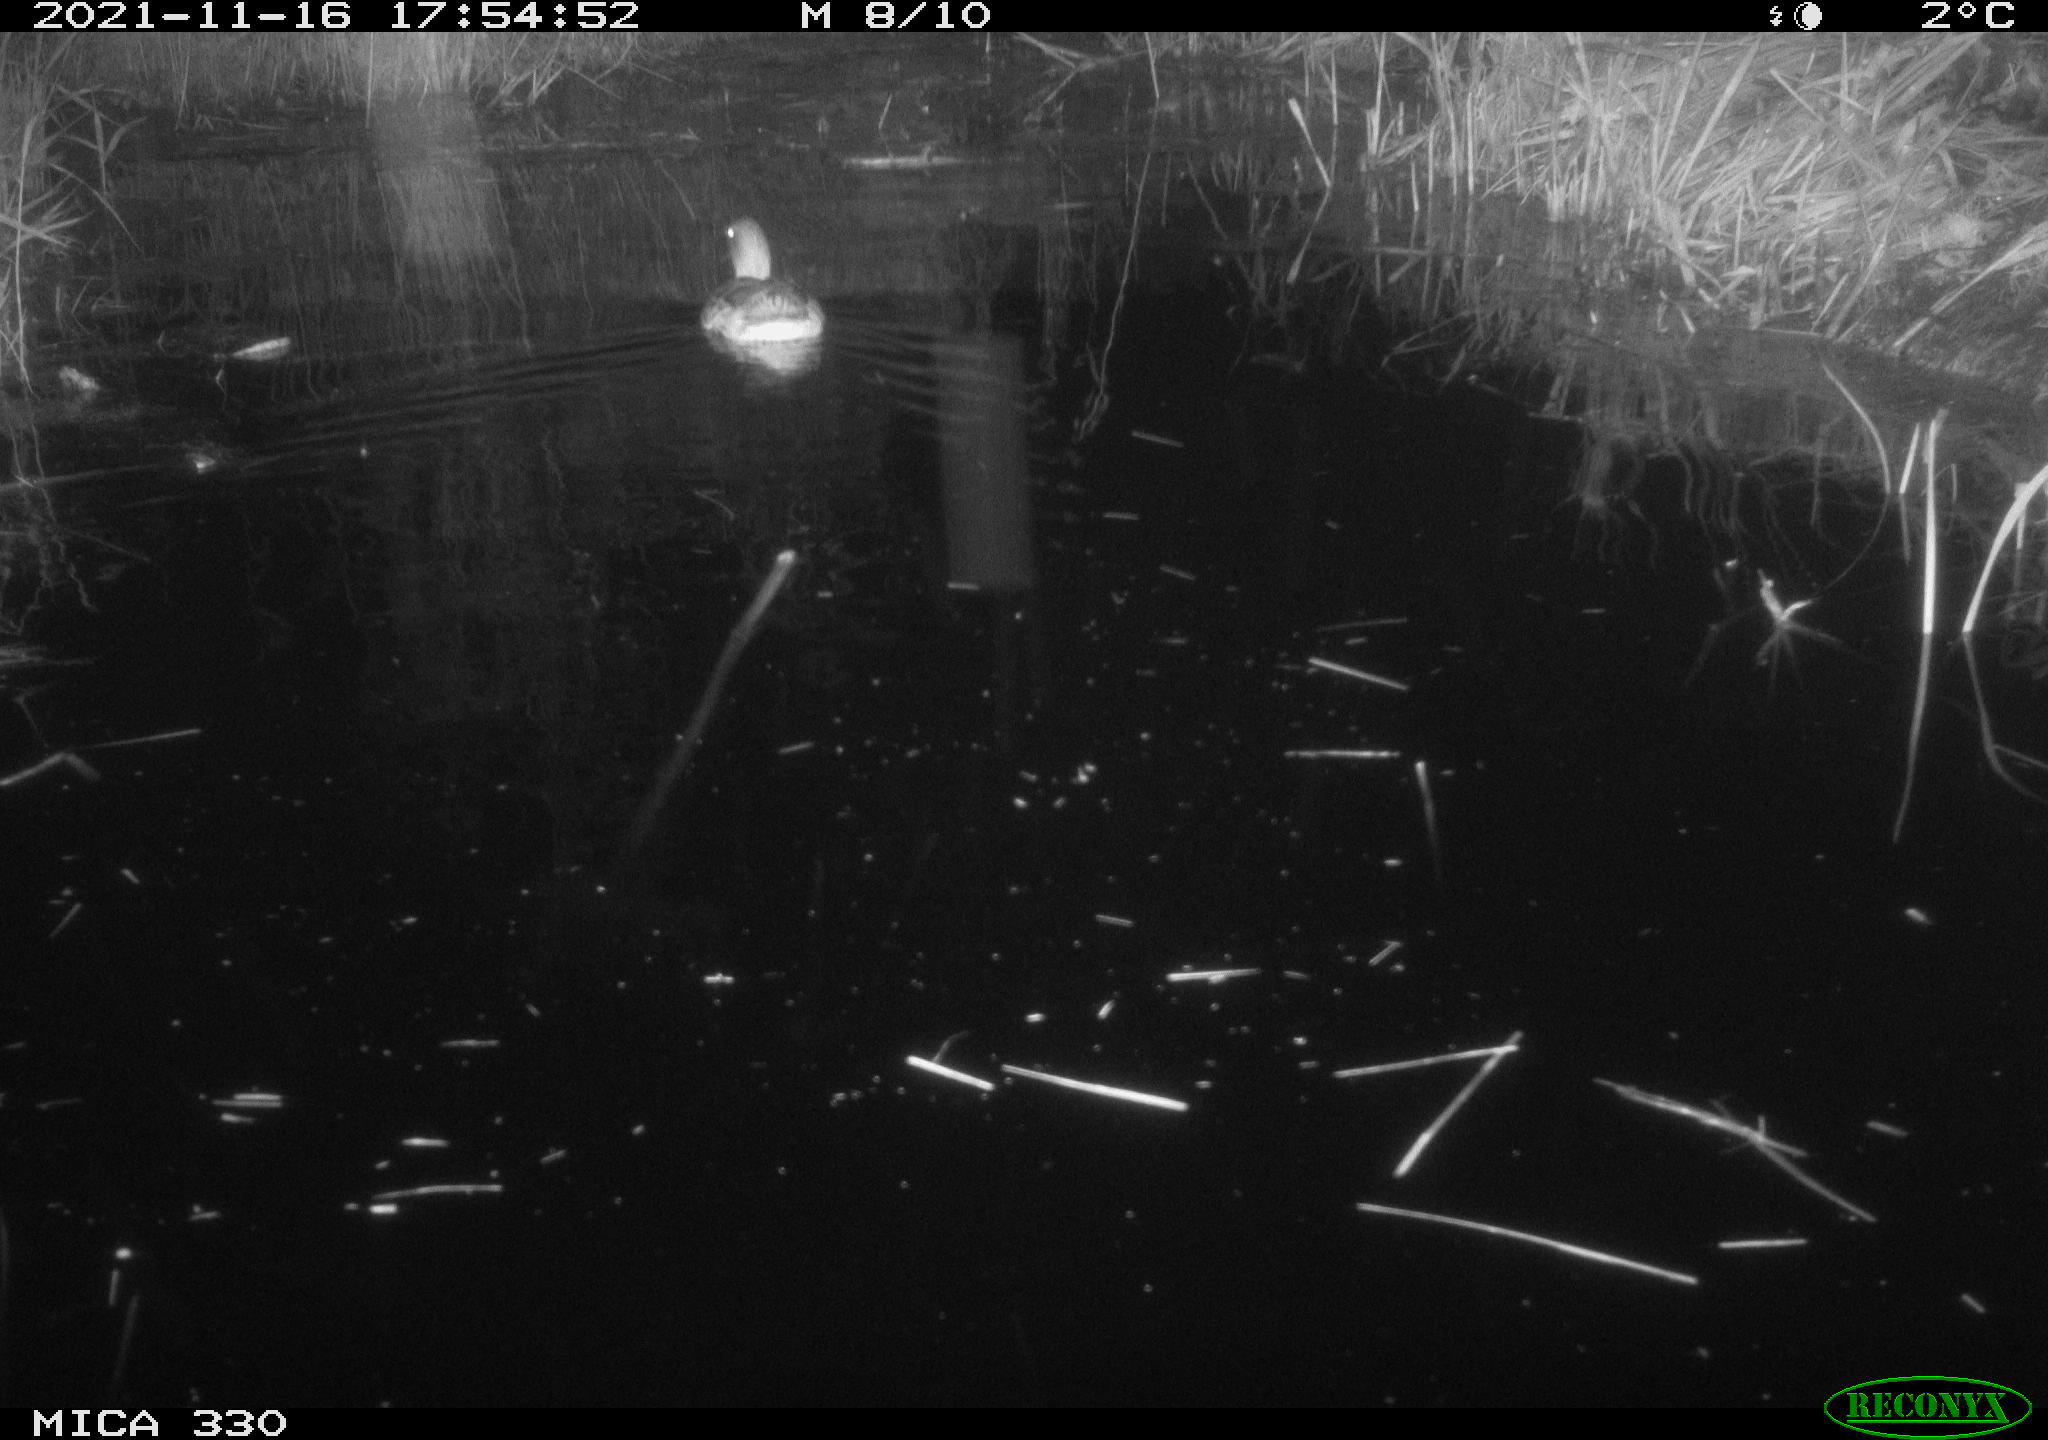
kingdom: Animalia
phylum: Chordata
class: Aves
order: Anseriformes
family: Anatidae
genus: Anas
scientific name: Anas platyrhynchos
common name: Mallard
